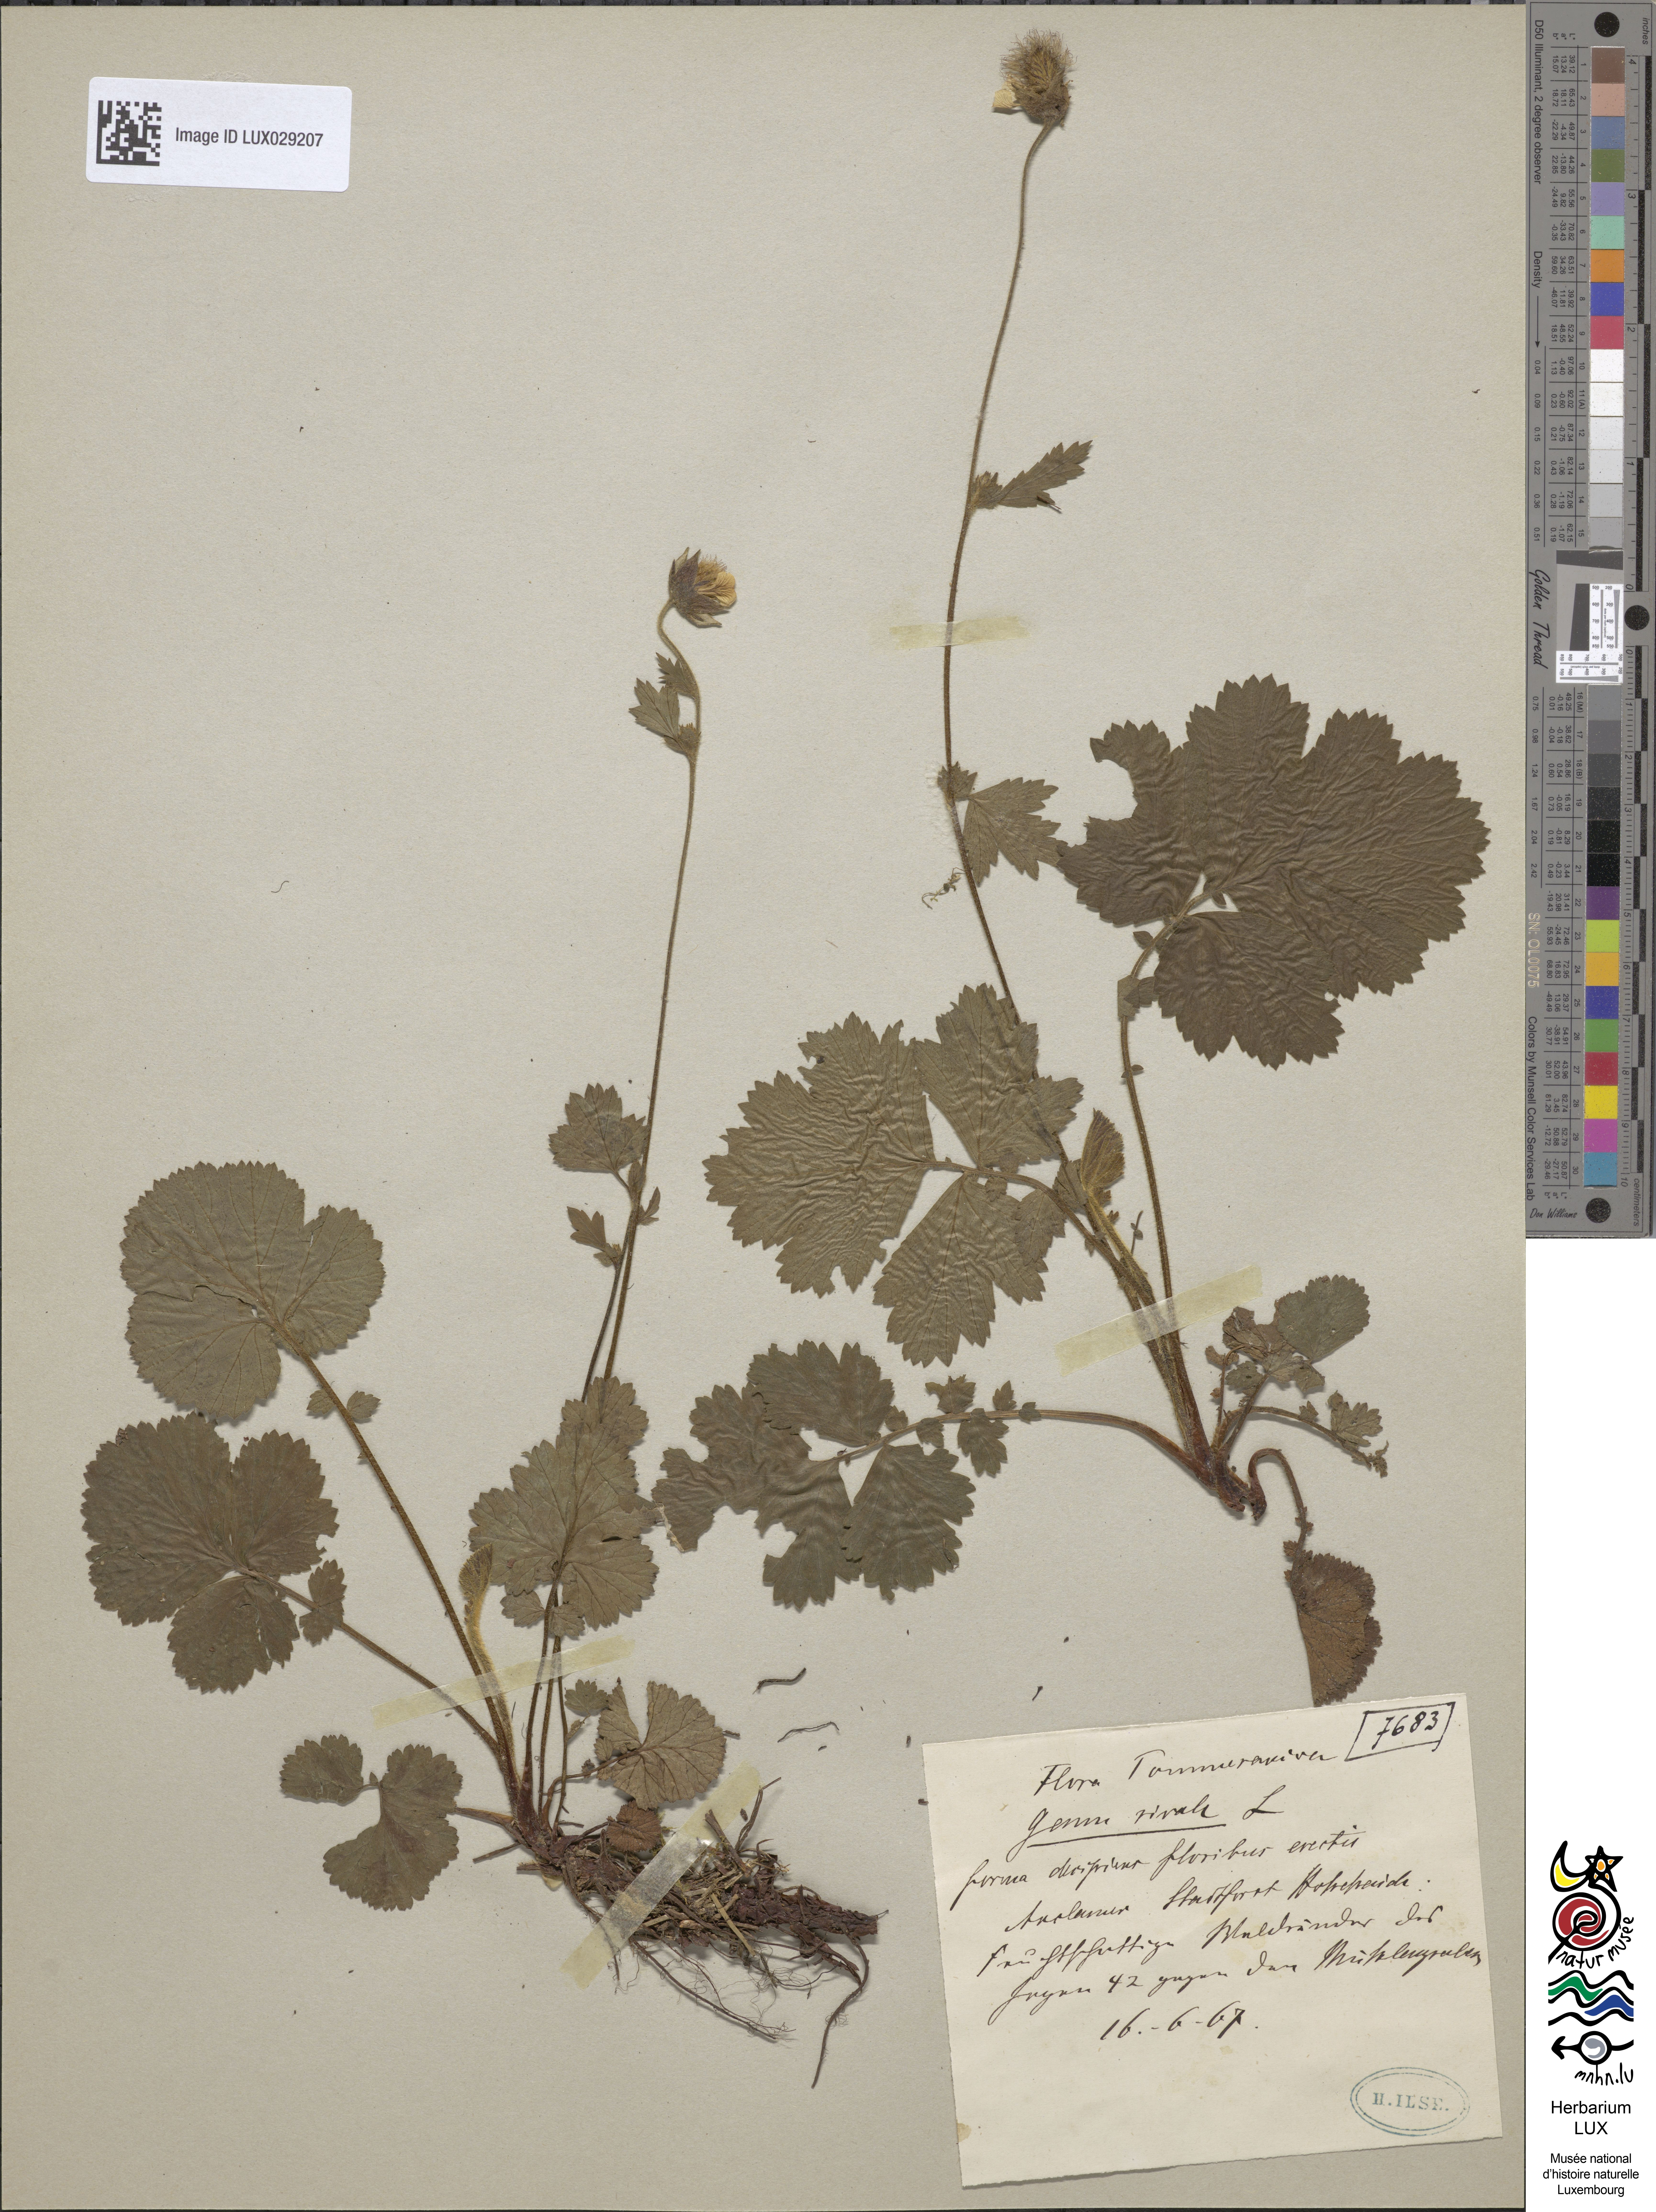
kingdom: Plantae
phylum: Tracheophyta
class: Magnoliopsida
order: Rosales
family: Rosaceae
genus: Geum
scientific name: Geum rivale
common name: Water avens
